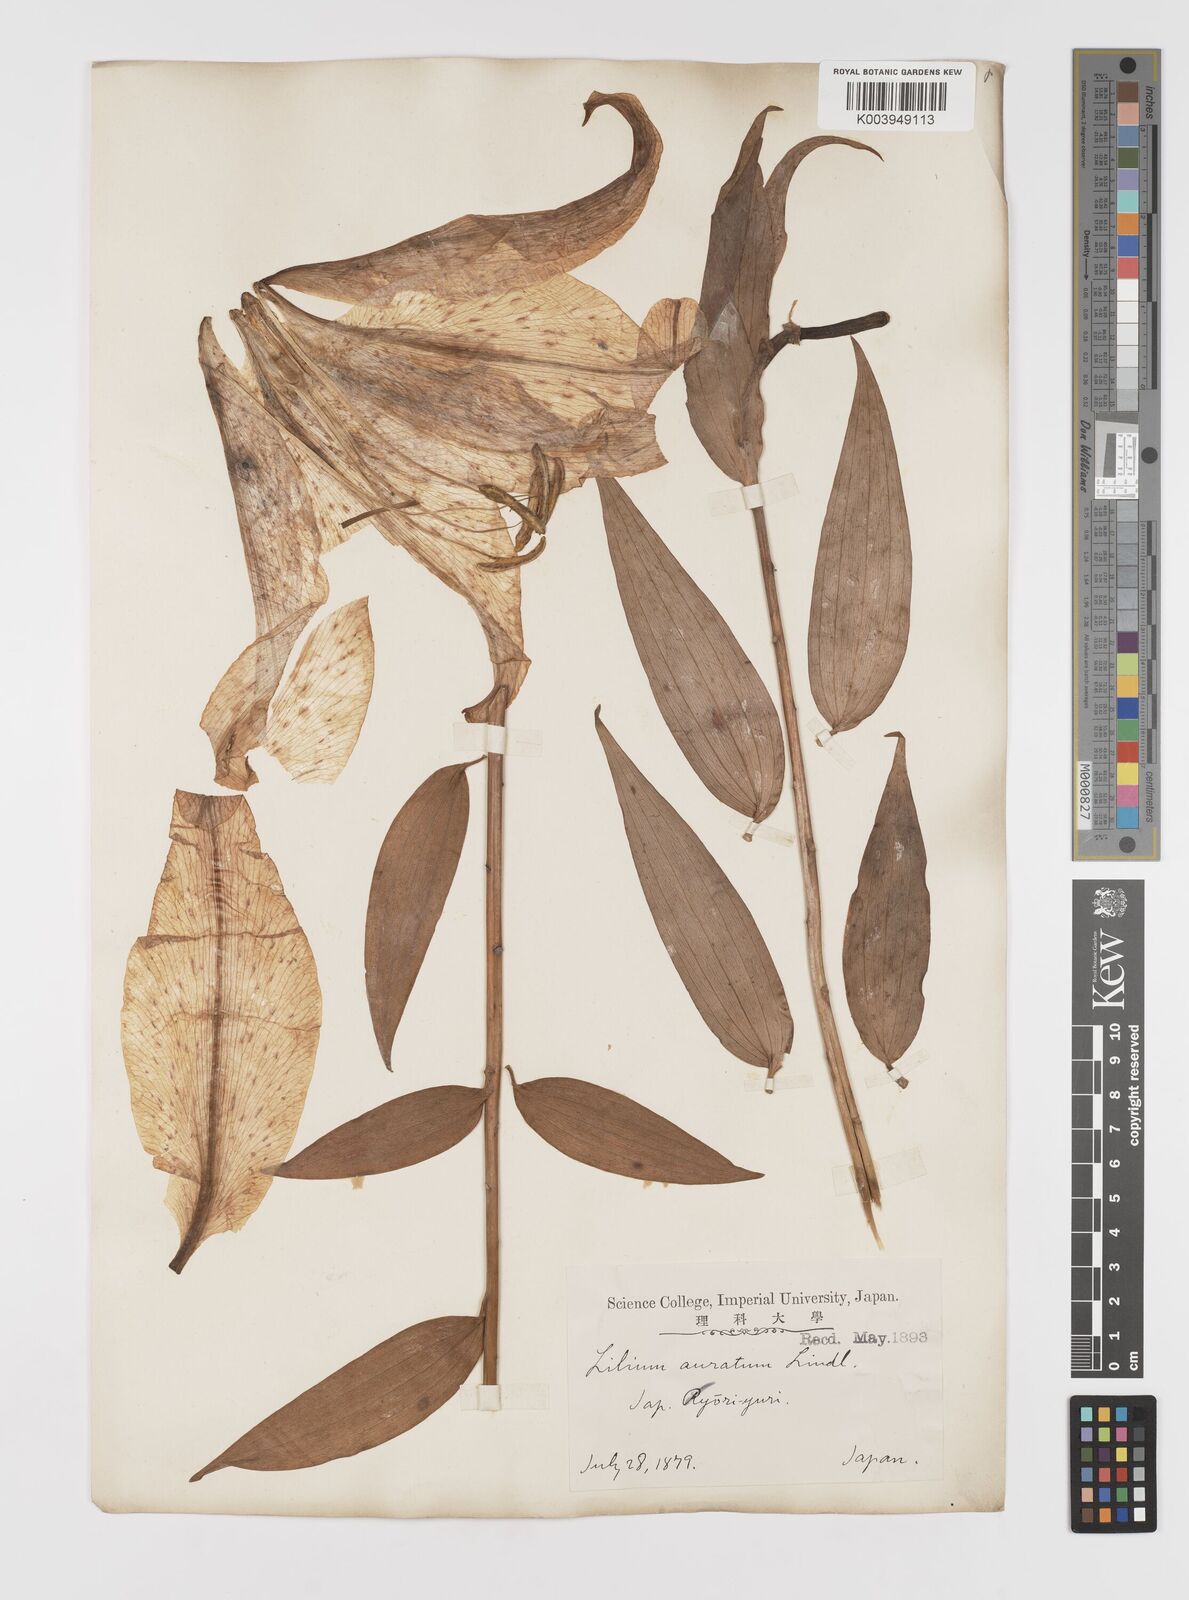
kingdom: Plantae
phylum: Tracheophyta
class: Liliopsida
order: Liliales
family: Liliaceae
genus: Lilium
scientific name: Lilium auratum
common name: Golden-ray lily
